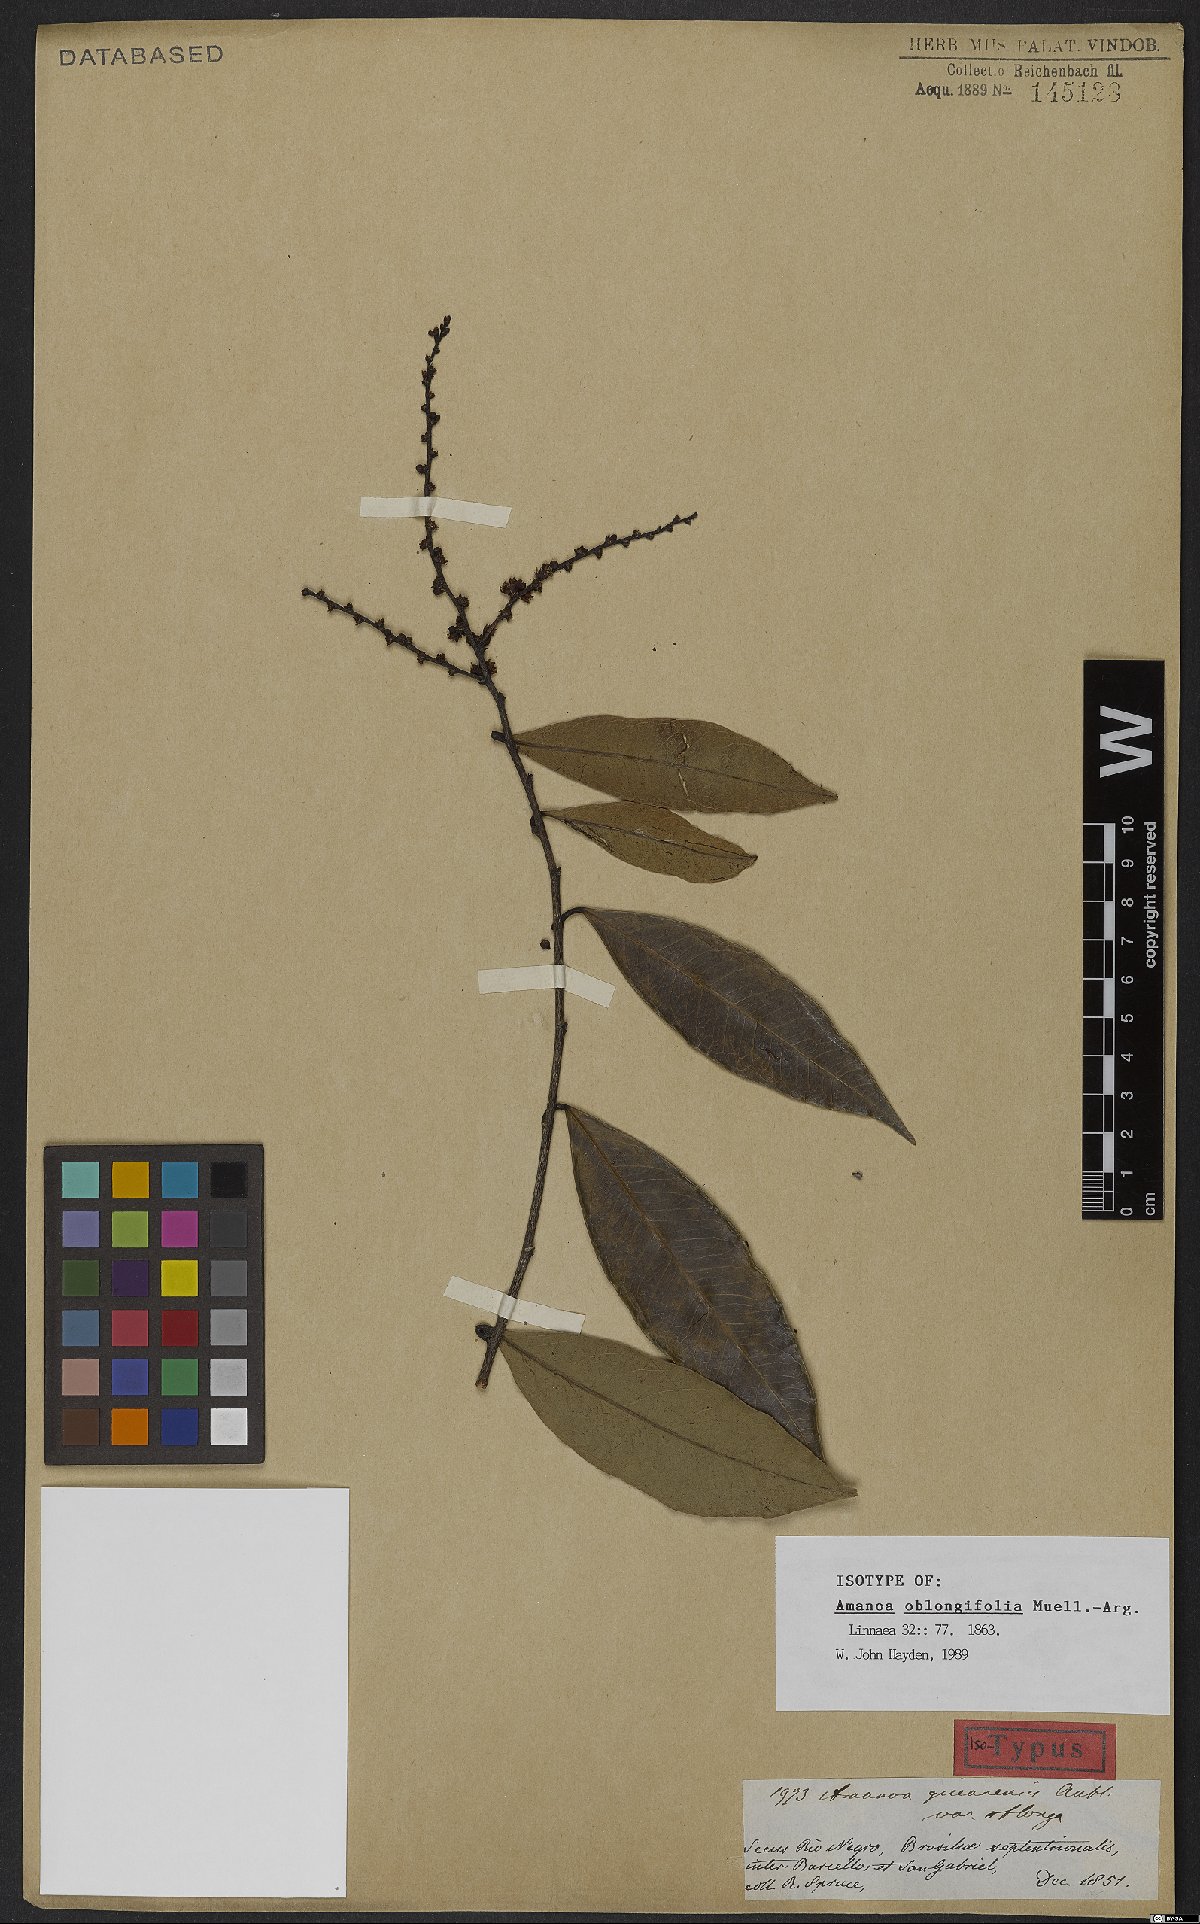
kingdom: Plantae
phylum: Tracheophyta
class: Magnoliopsida
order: Malpighiales
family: Euphorbiaceae
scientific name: Euphorbiaceae
